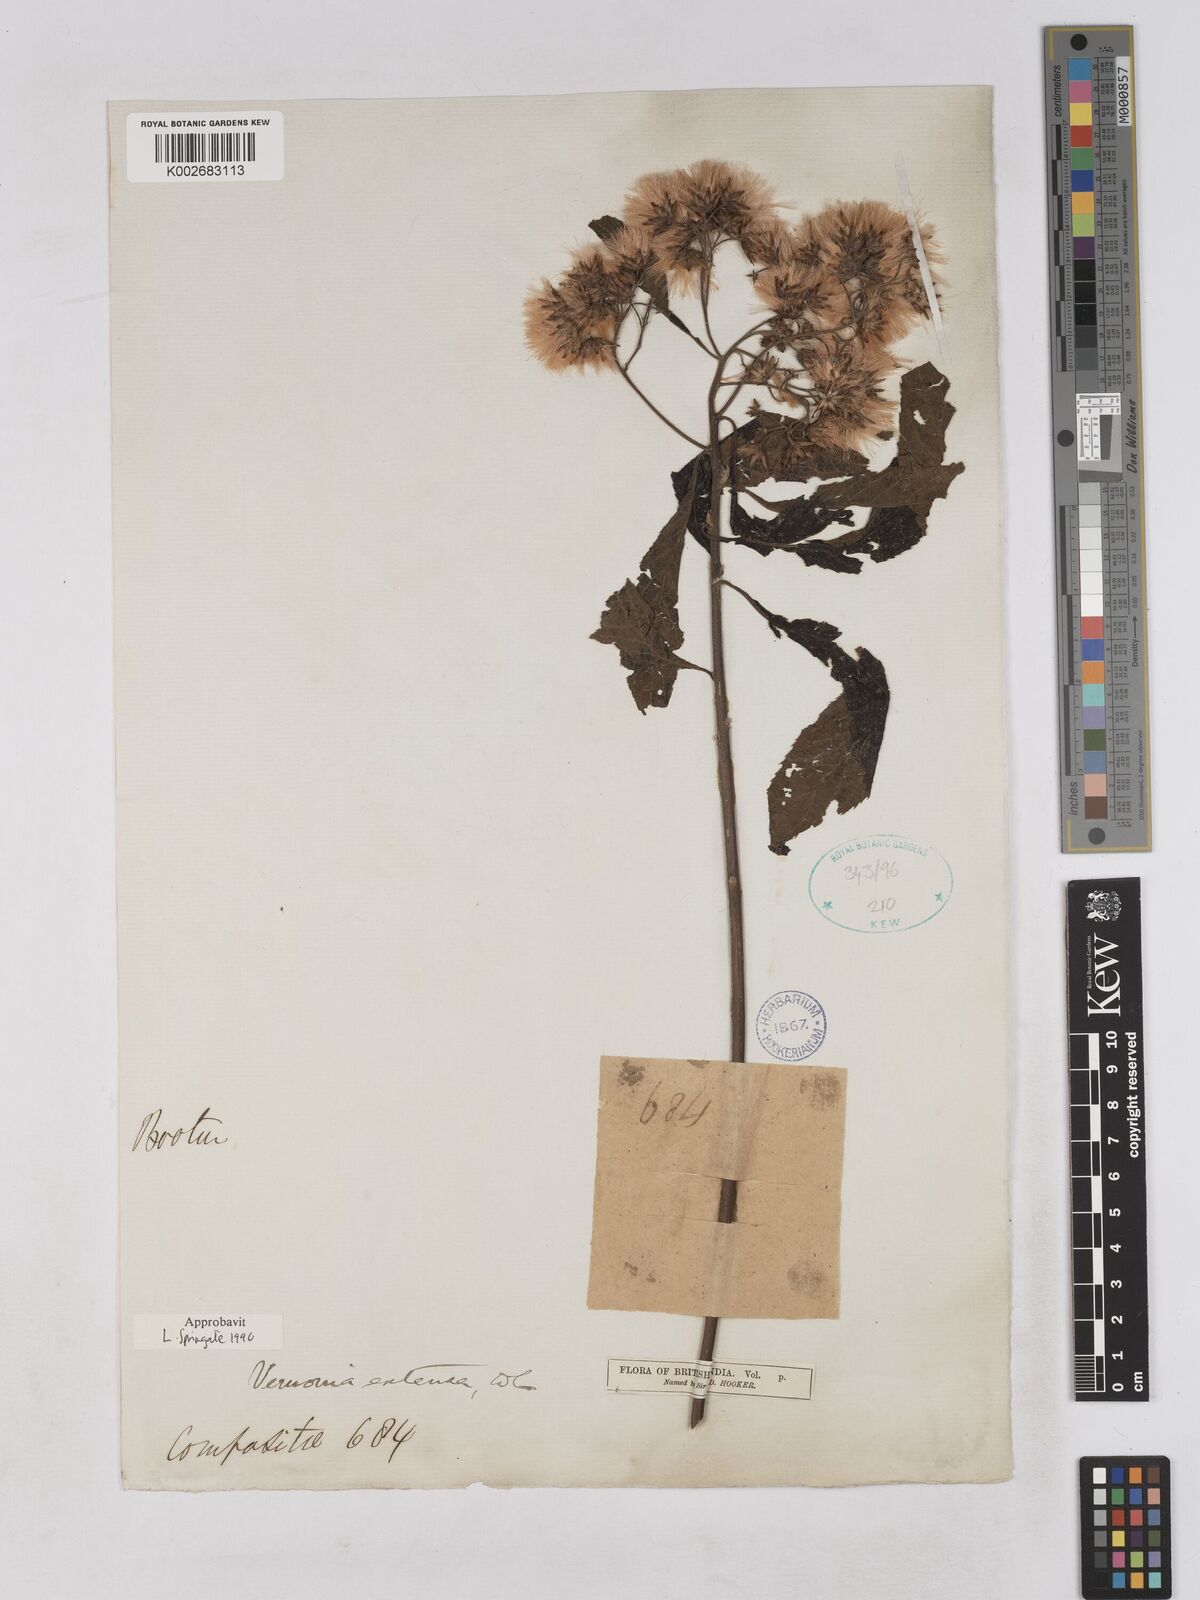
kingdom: Plantae
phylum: Tracheophyta
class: Magnoliopsida
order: Asterales
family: Asteraceae
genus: Gymnanthemum
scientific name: Gymnanthemum extensum
